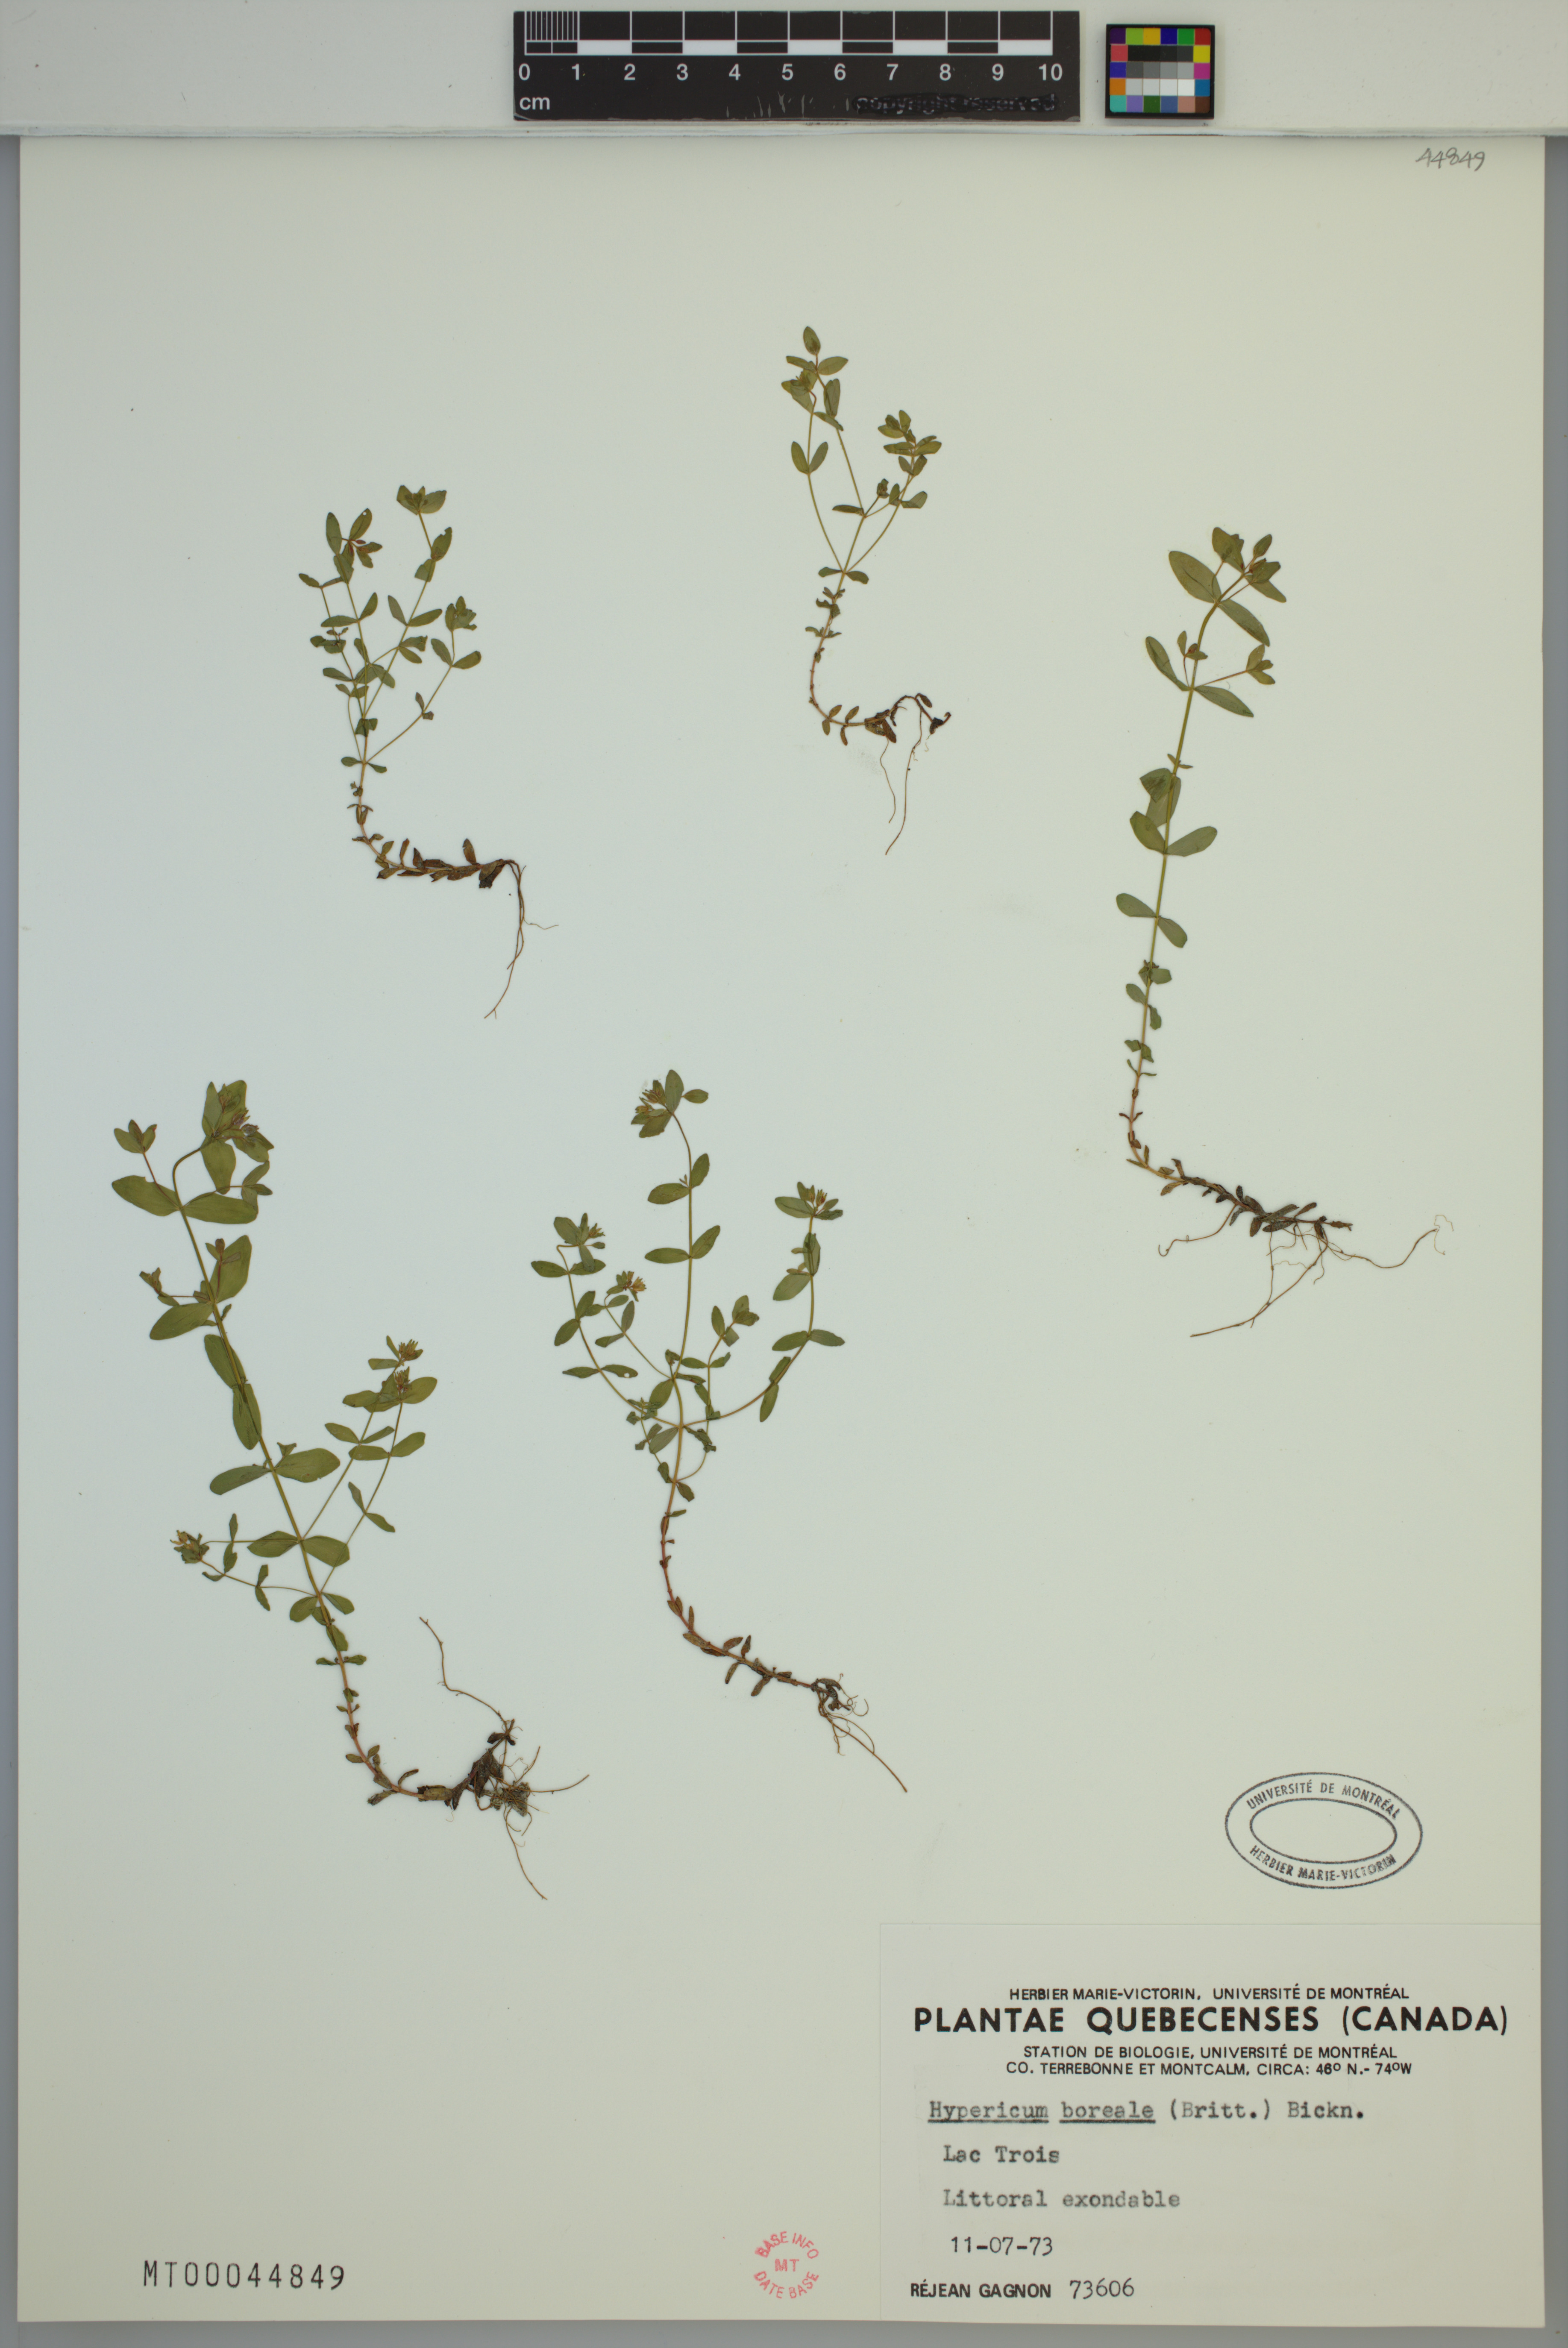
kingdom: Plantae
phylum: Tracheophyta
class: Magnoliopsida
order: Malpighiales
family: Hypericaceae
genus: Hypericum
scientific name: Hypericum boreale
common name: Northern bog st. john's-wort
